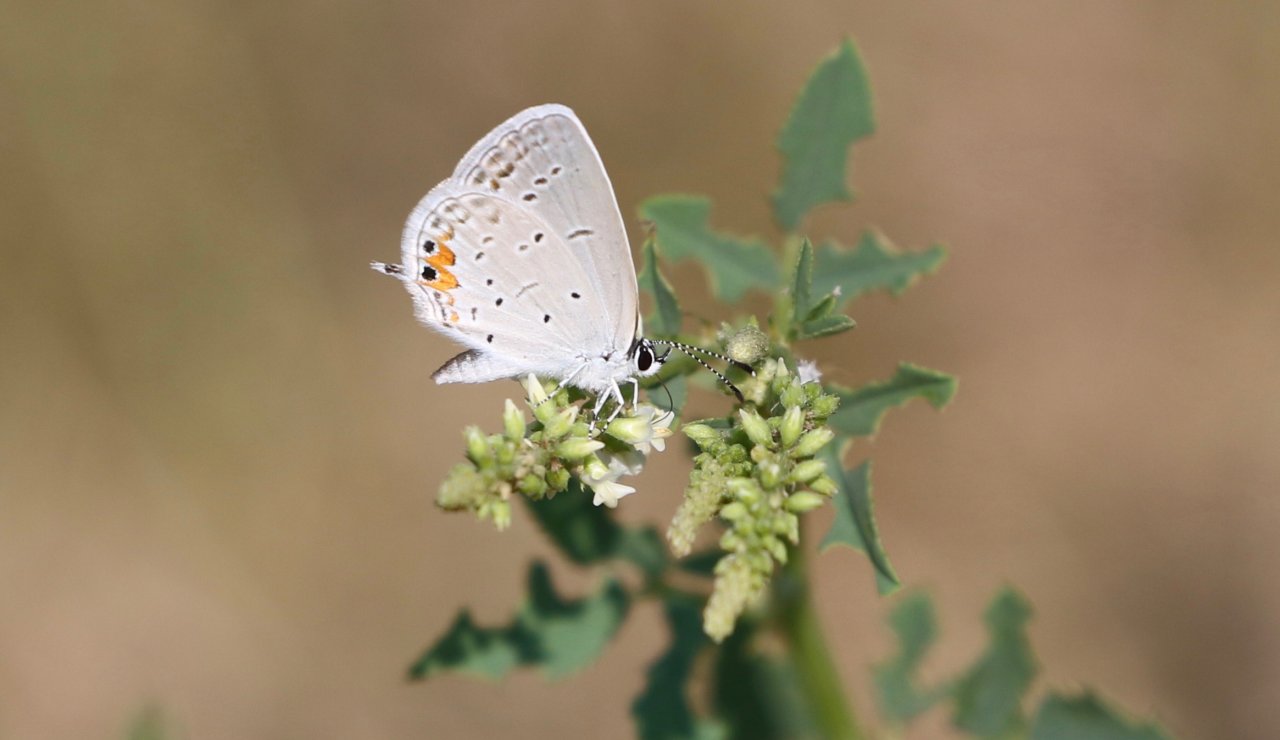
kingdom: Animalia
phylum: Arthropoda
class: Insecta
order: Lepidoptera
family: Lycaenidae
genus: Elkalyce
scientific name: Elkalyce comyntas
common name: Eastern Tailed-Blue
